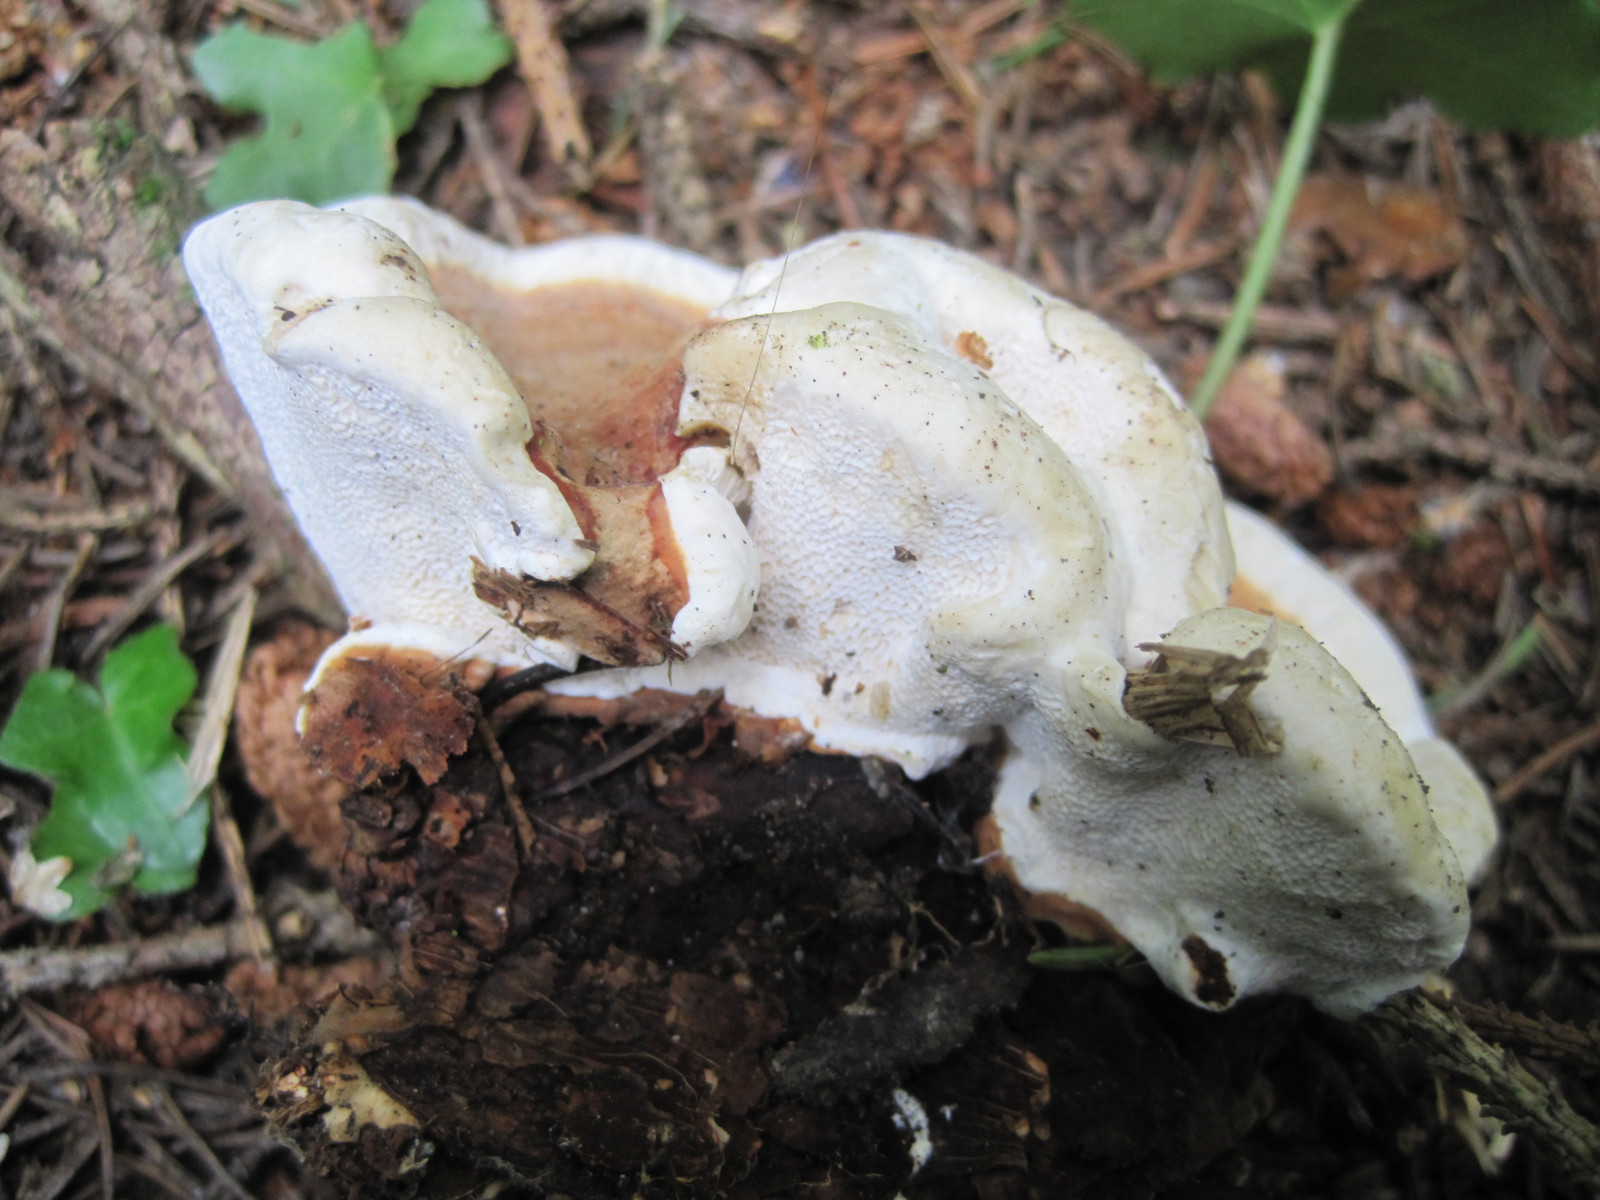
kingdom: Fungi
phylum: Basidiomycota
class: Agaricomycetes
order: Russulales
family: Bondarzewiaceae
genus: Heterobasidion
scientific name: Heterobasidion annosum
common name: almindelig rodfordærver
